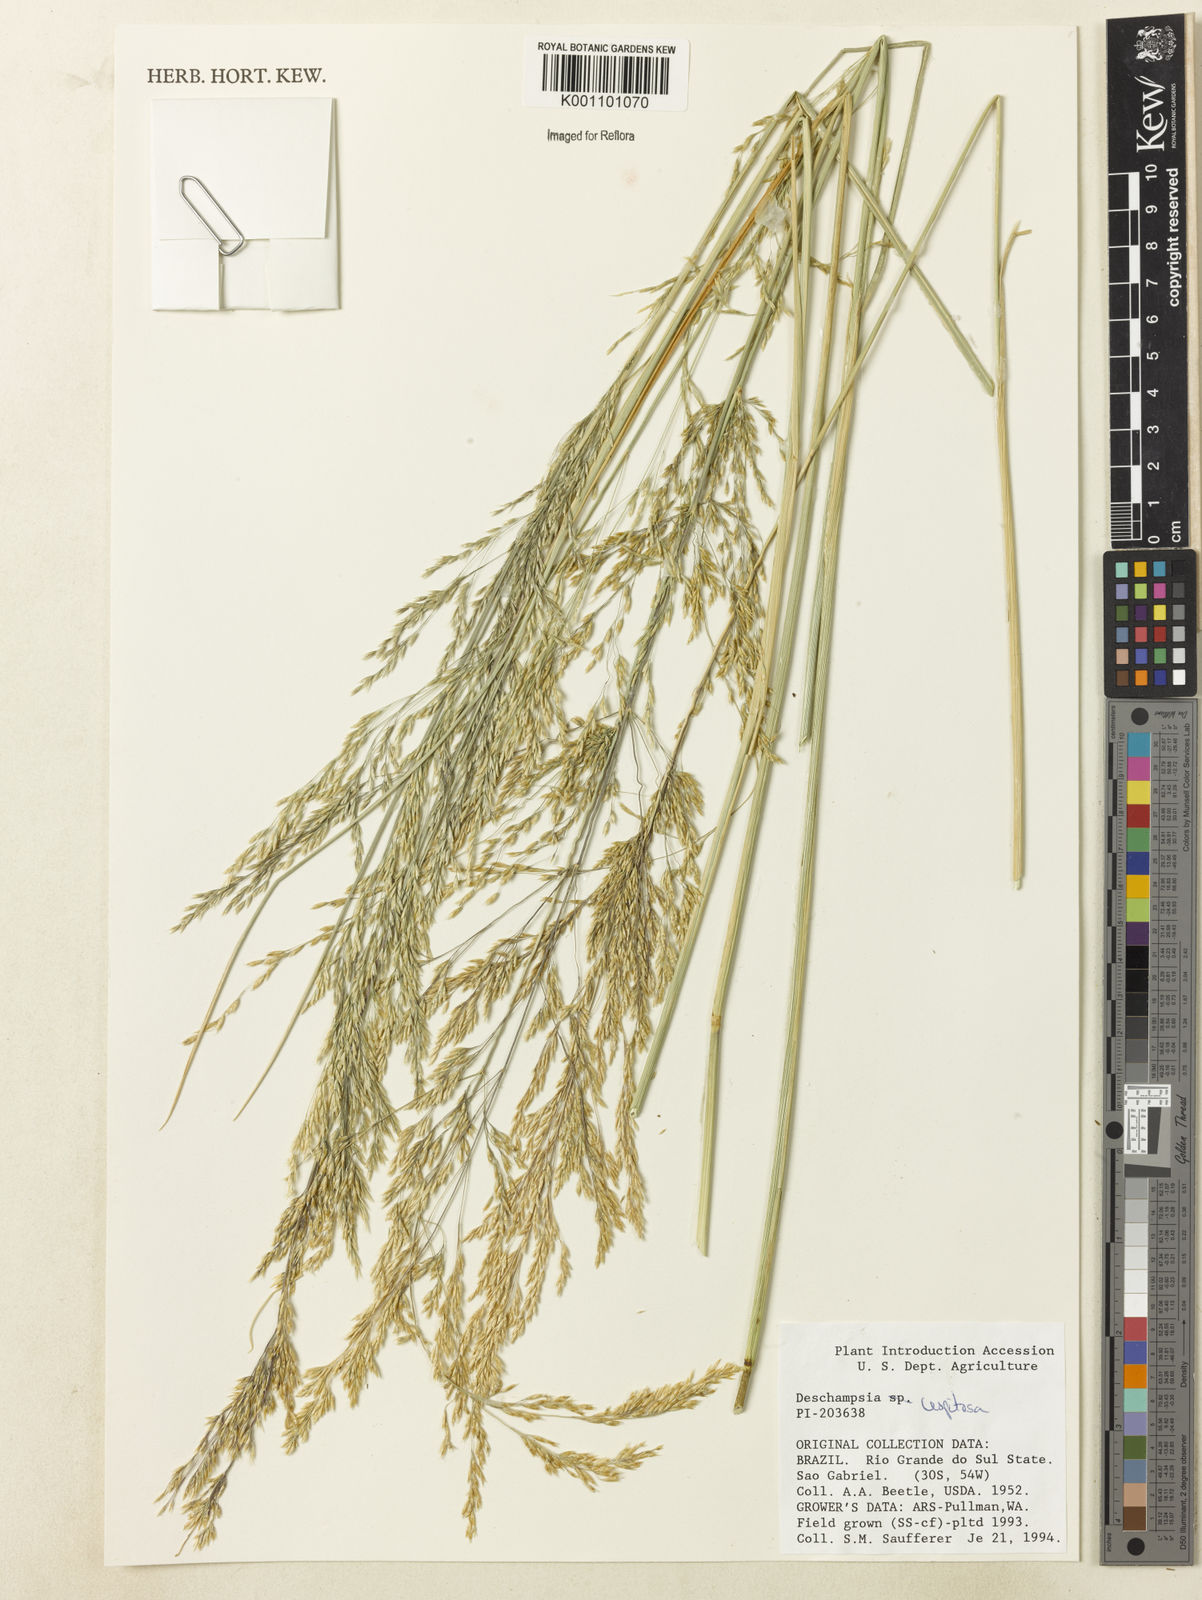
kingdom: Plantae
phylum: Tracheophyta
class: Liliopsida
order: Poales
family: Poaceae
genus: Deschampsia
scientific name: Deschampsia
